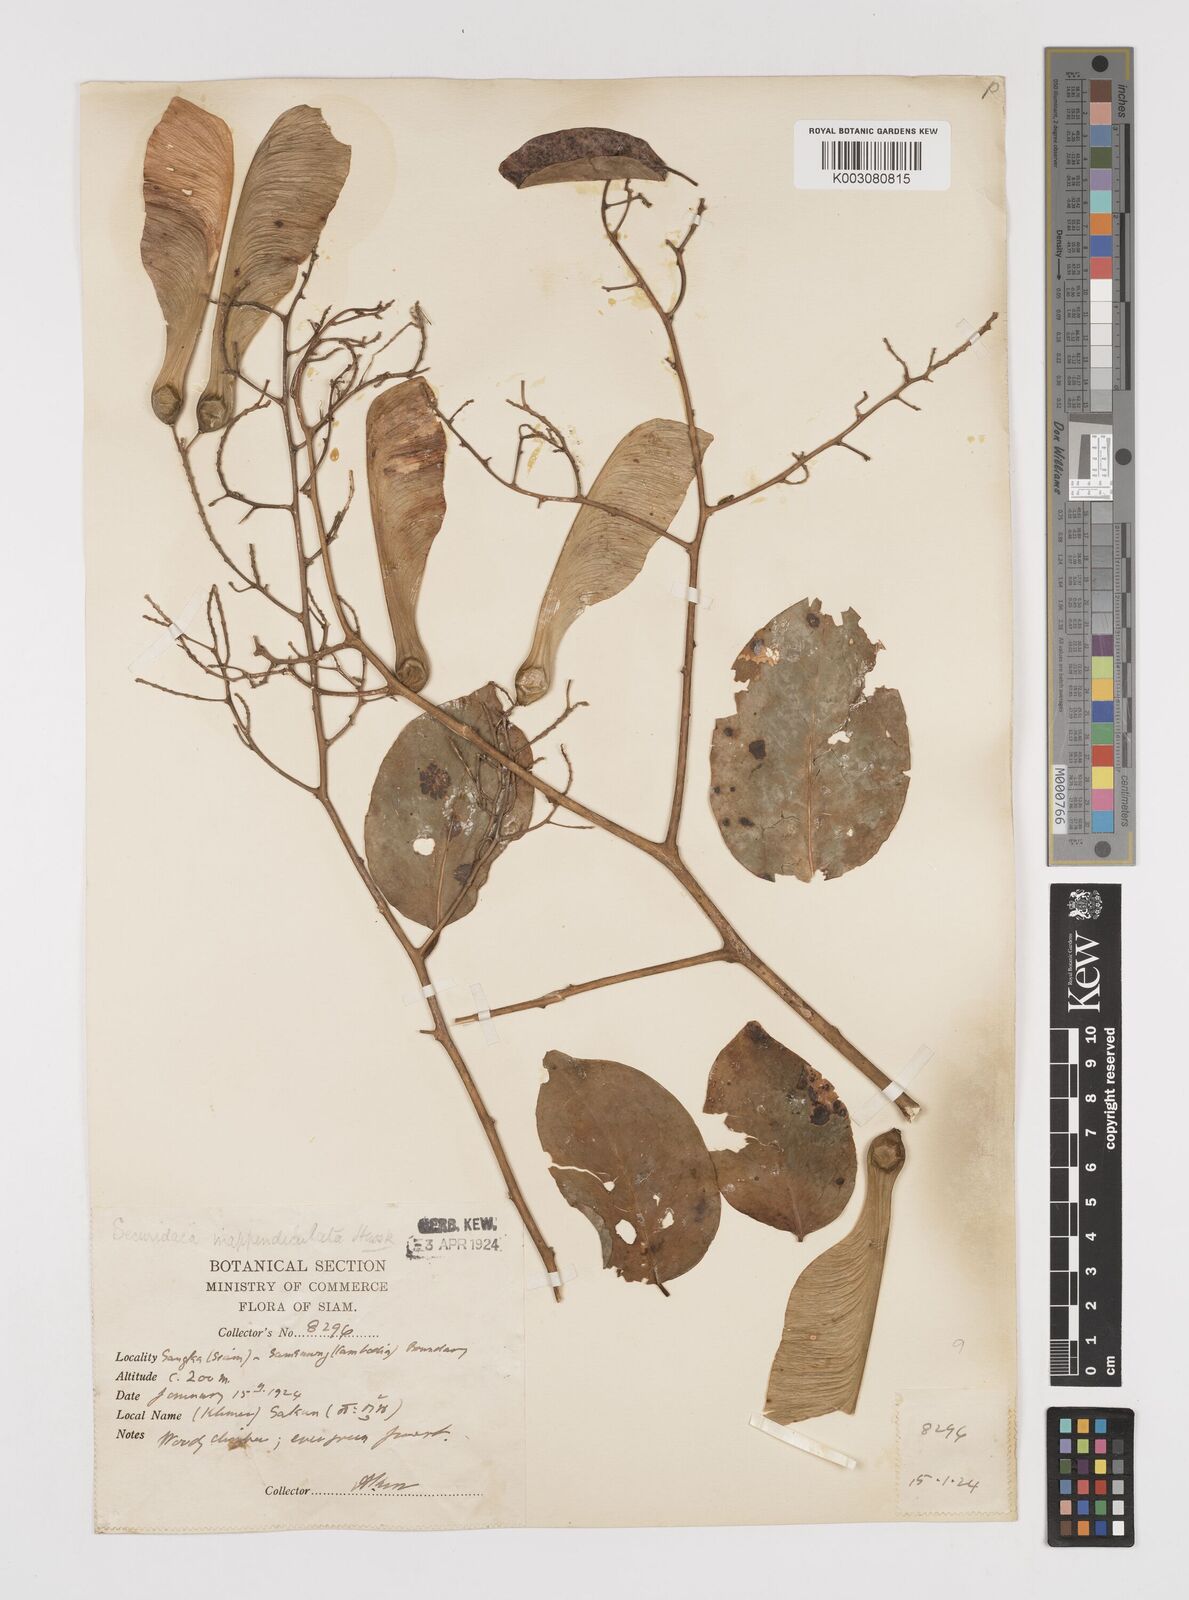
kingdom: Plantae
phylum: Tracheophyta
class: Magnoliopsida
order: Fabales
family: Polygalaceae
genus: Securidaca
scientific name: Securidaca inappendiculata
